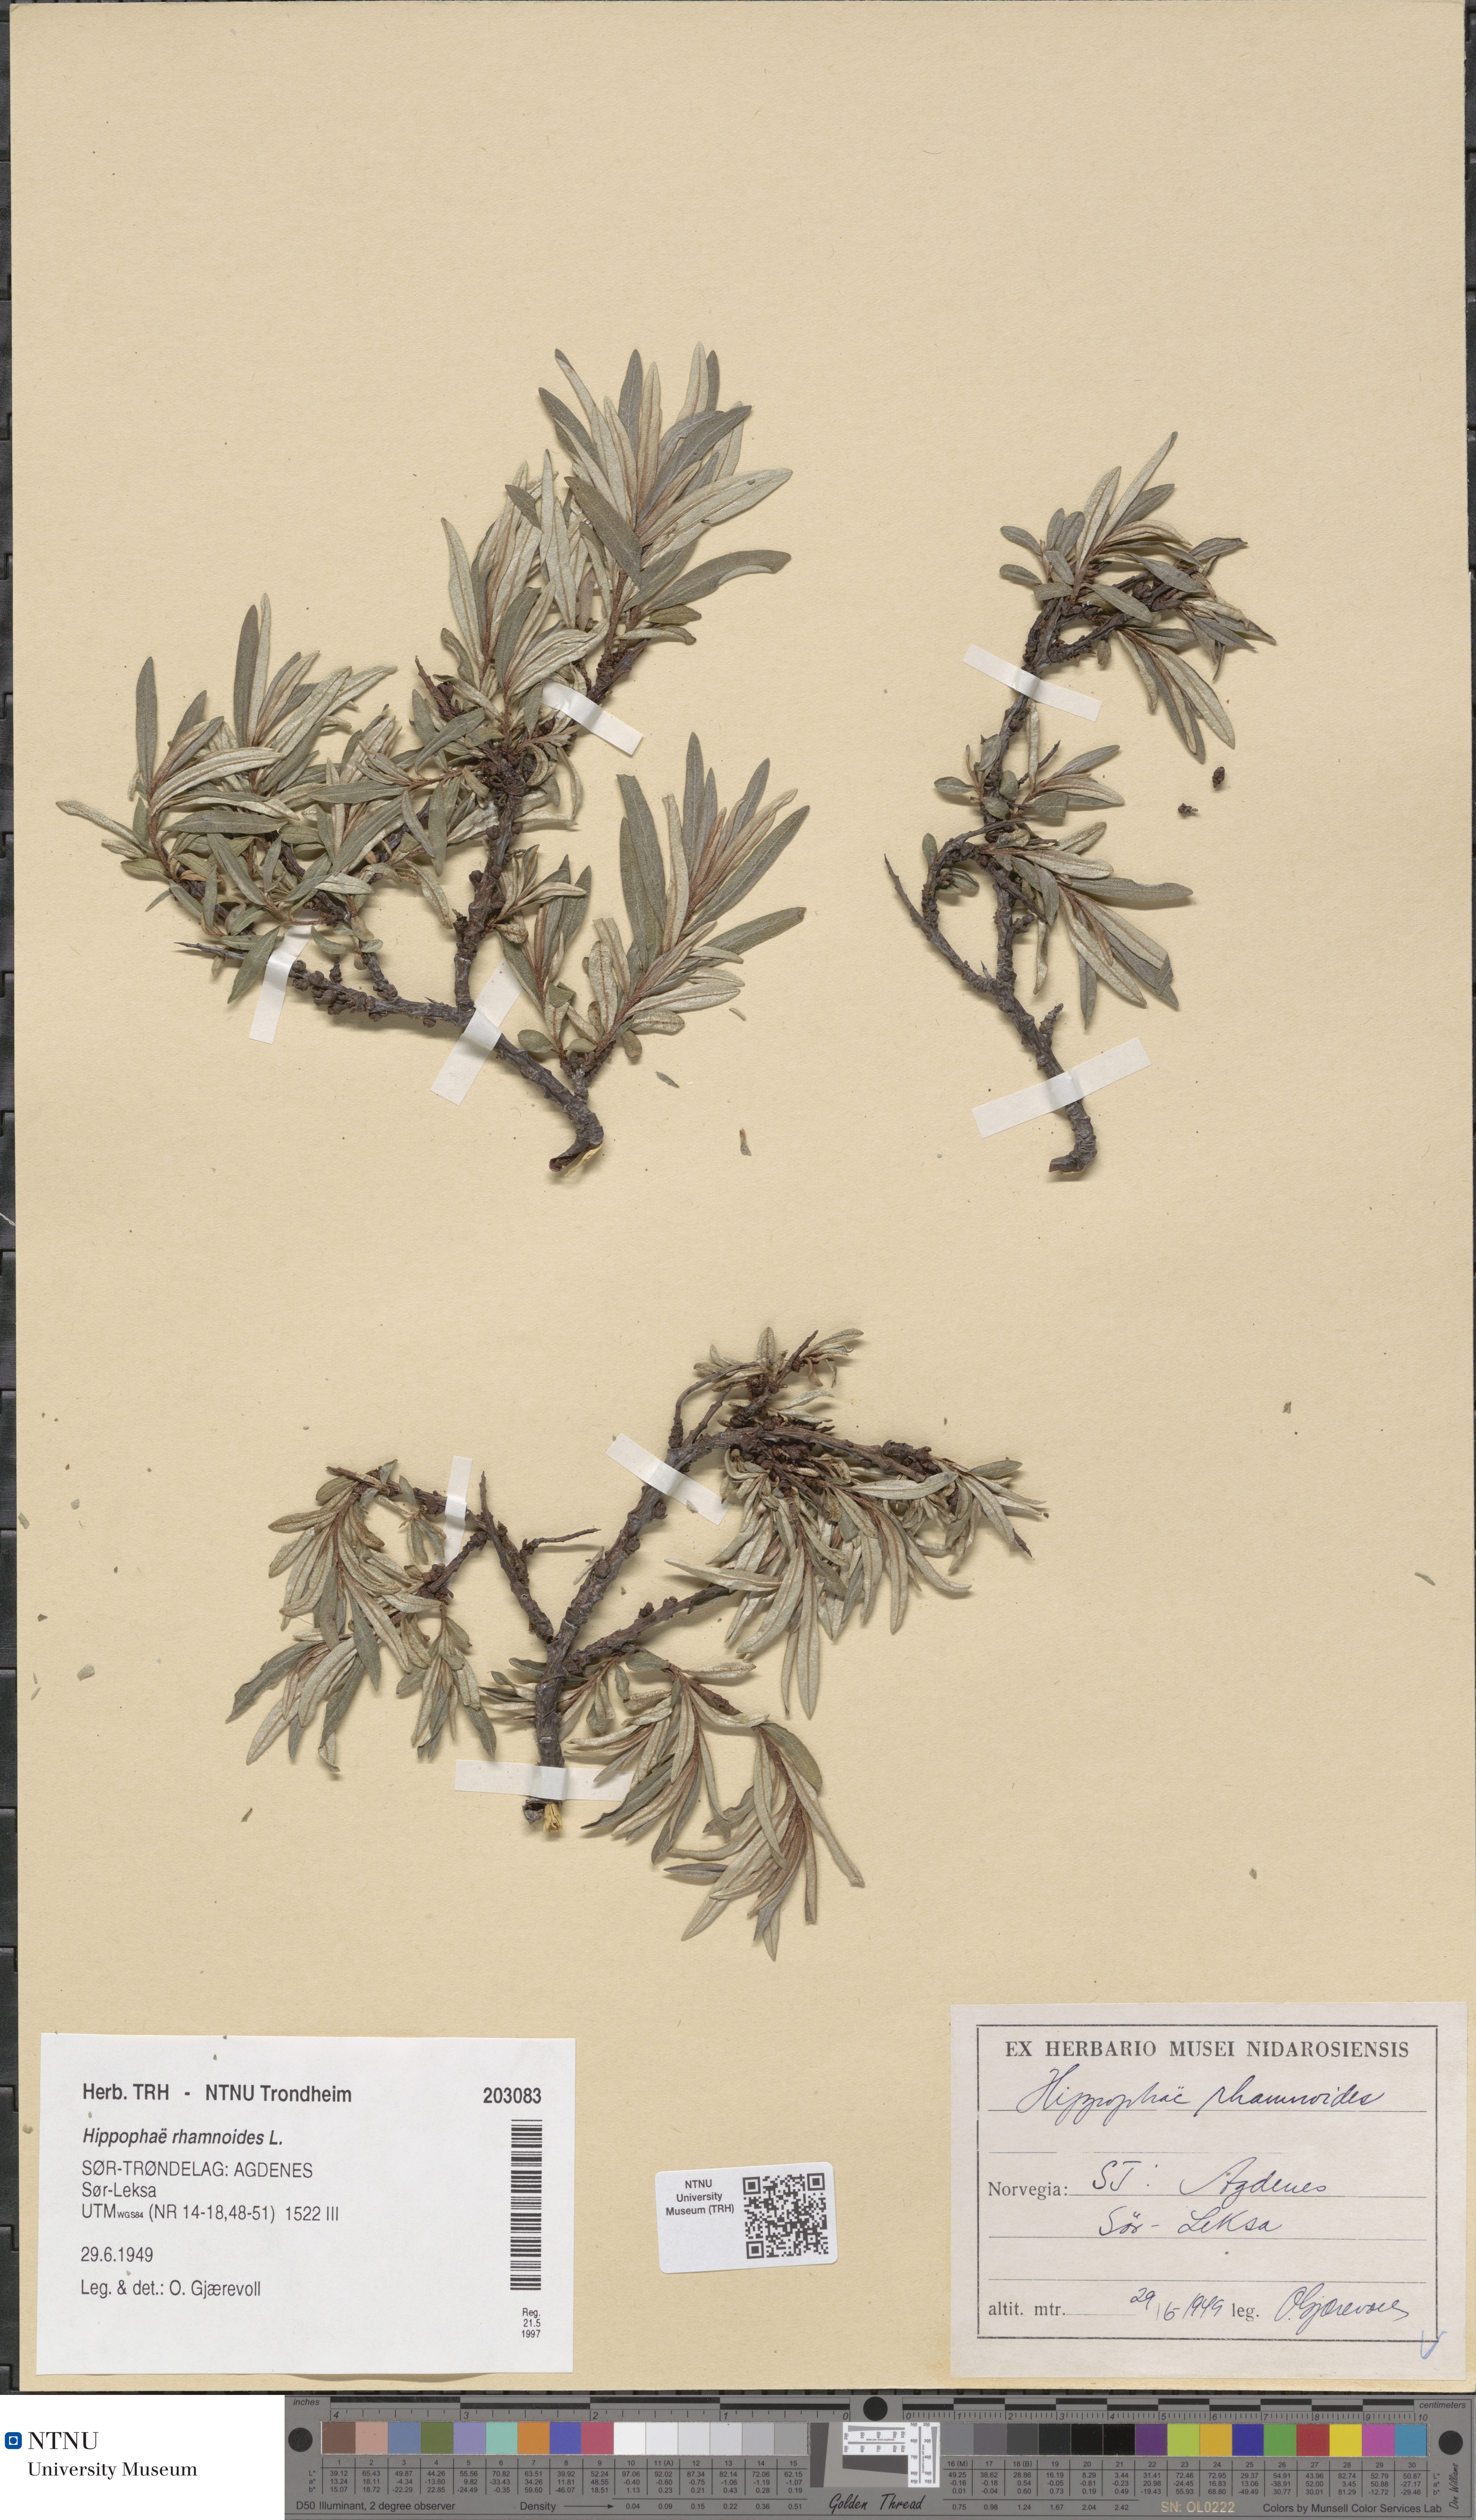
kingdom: Plantae
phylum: Tracheophyta
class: Magnoliopsida
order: Rosales
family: Elaeagnaceae
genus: Hippophae
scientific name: Hippophae rhamnoides
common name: Sea-buckthorn
